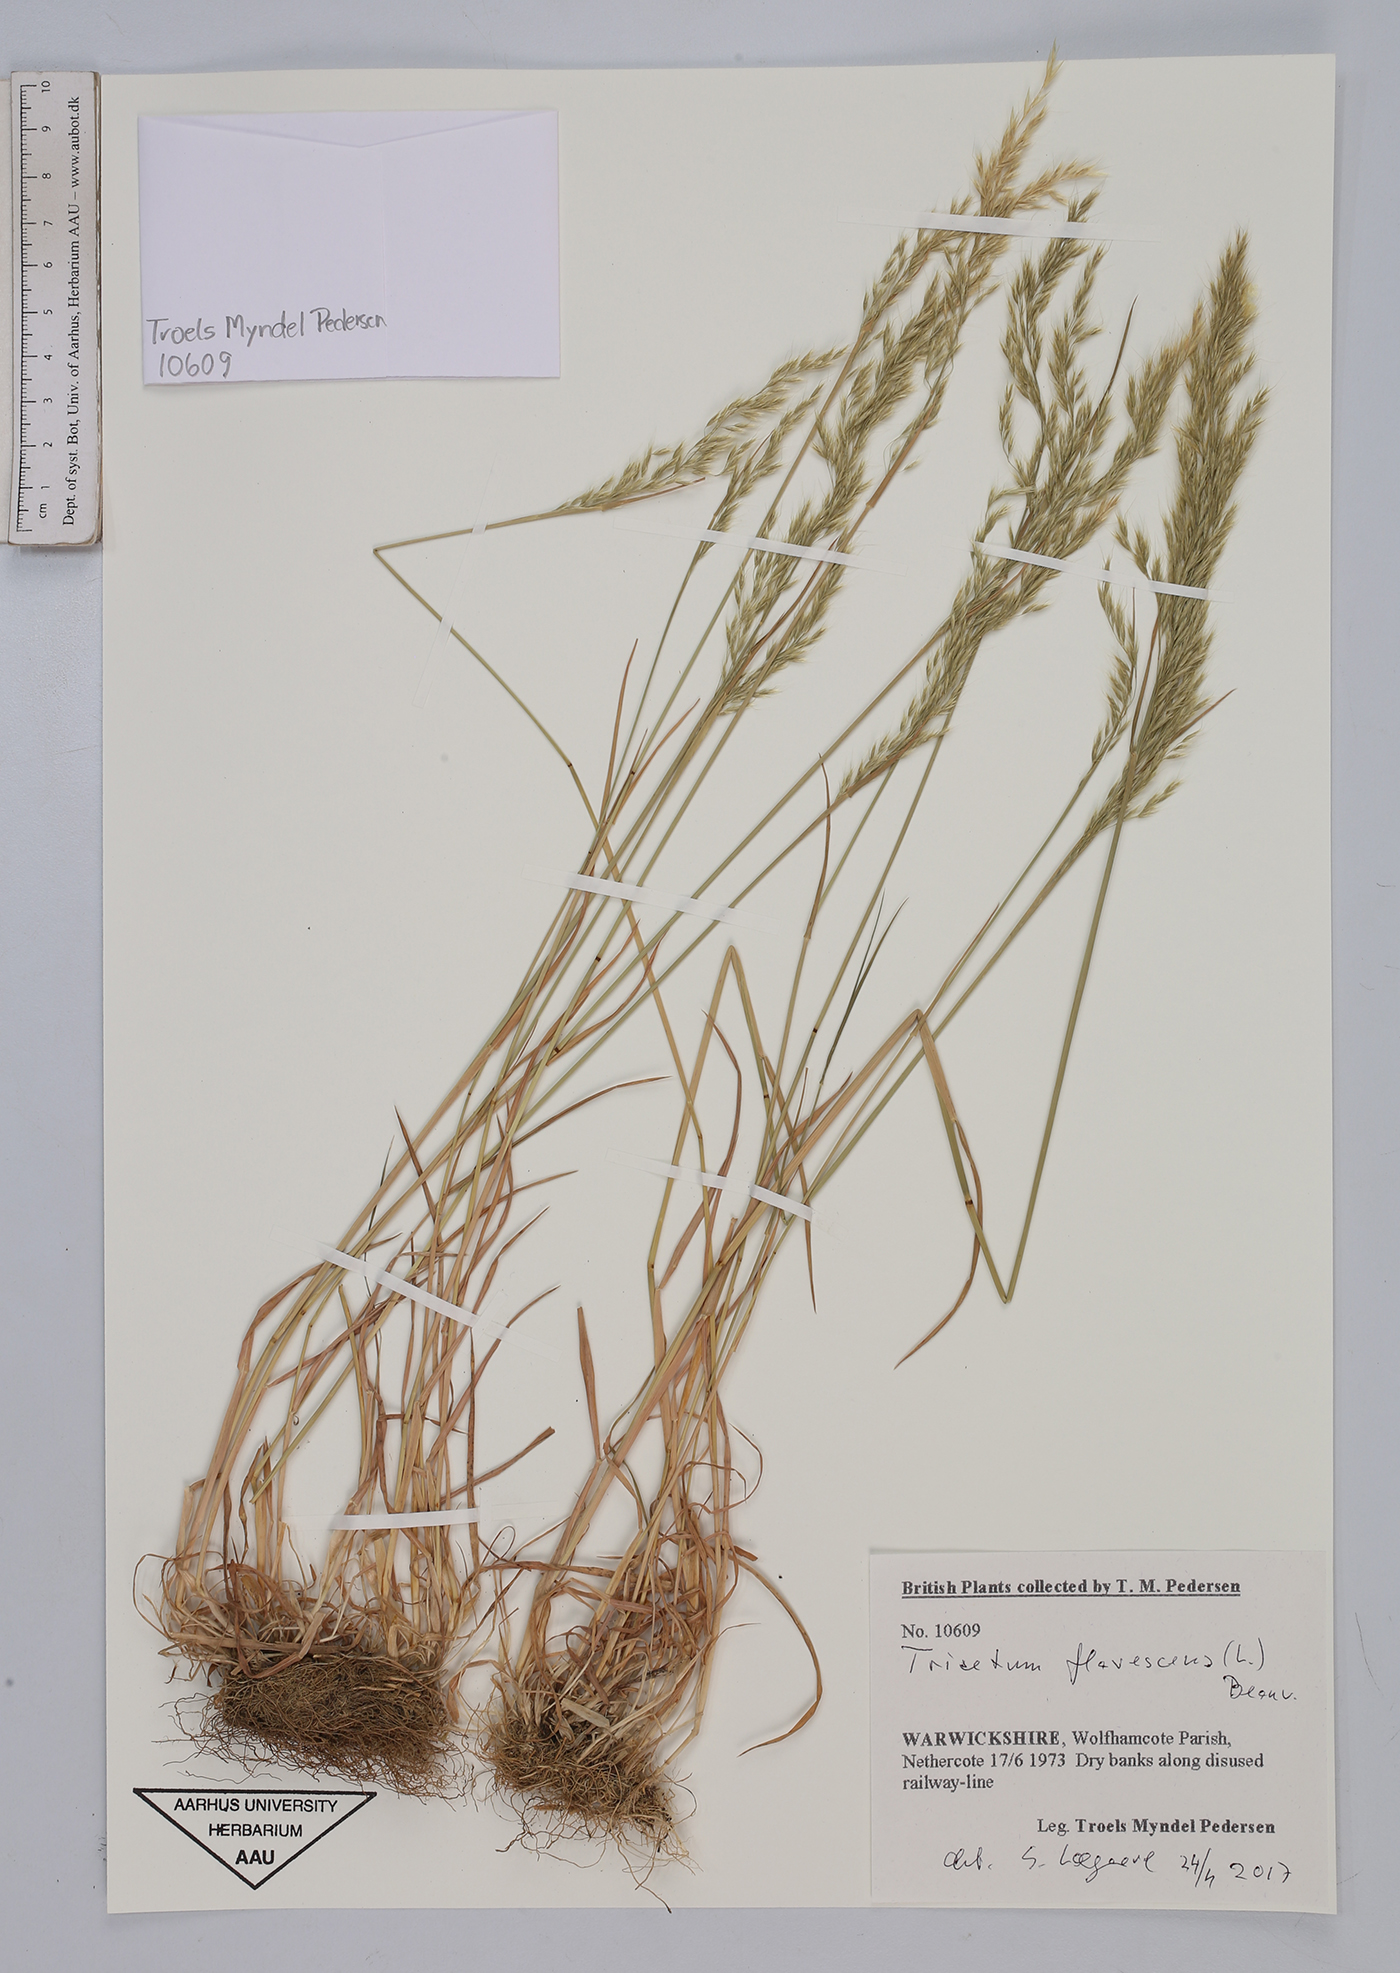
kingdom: Plantae
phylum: Tracheophyta
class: Liliopsida
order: Poales
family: Poaceae
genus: Trisetum
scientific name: Trisetum flavescens
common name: Yellow oat-grass
